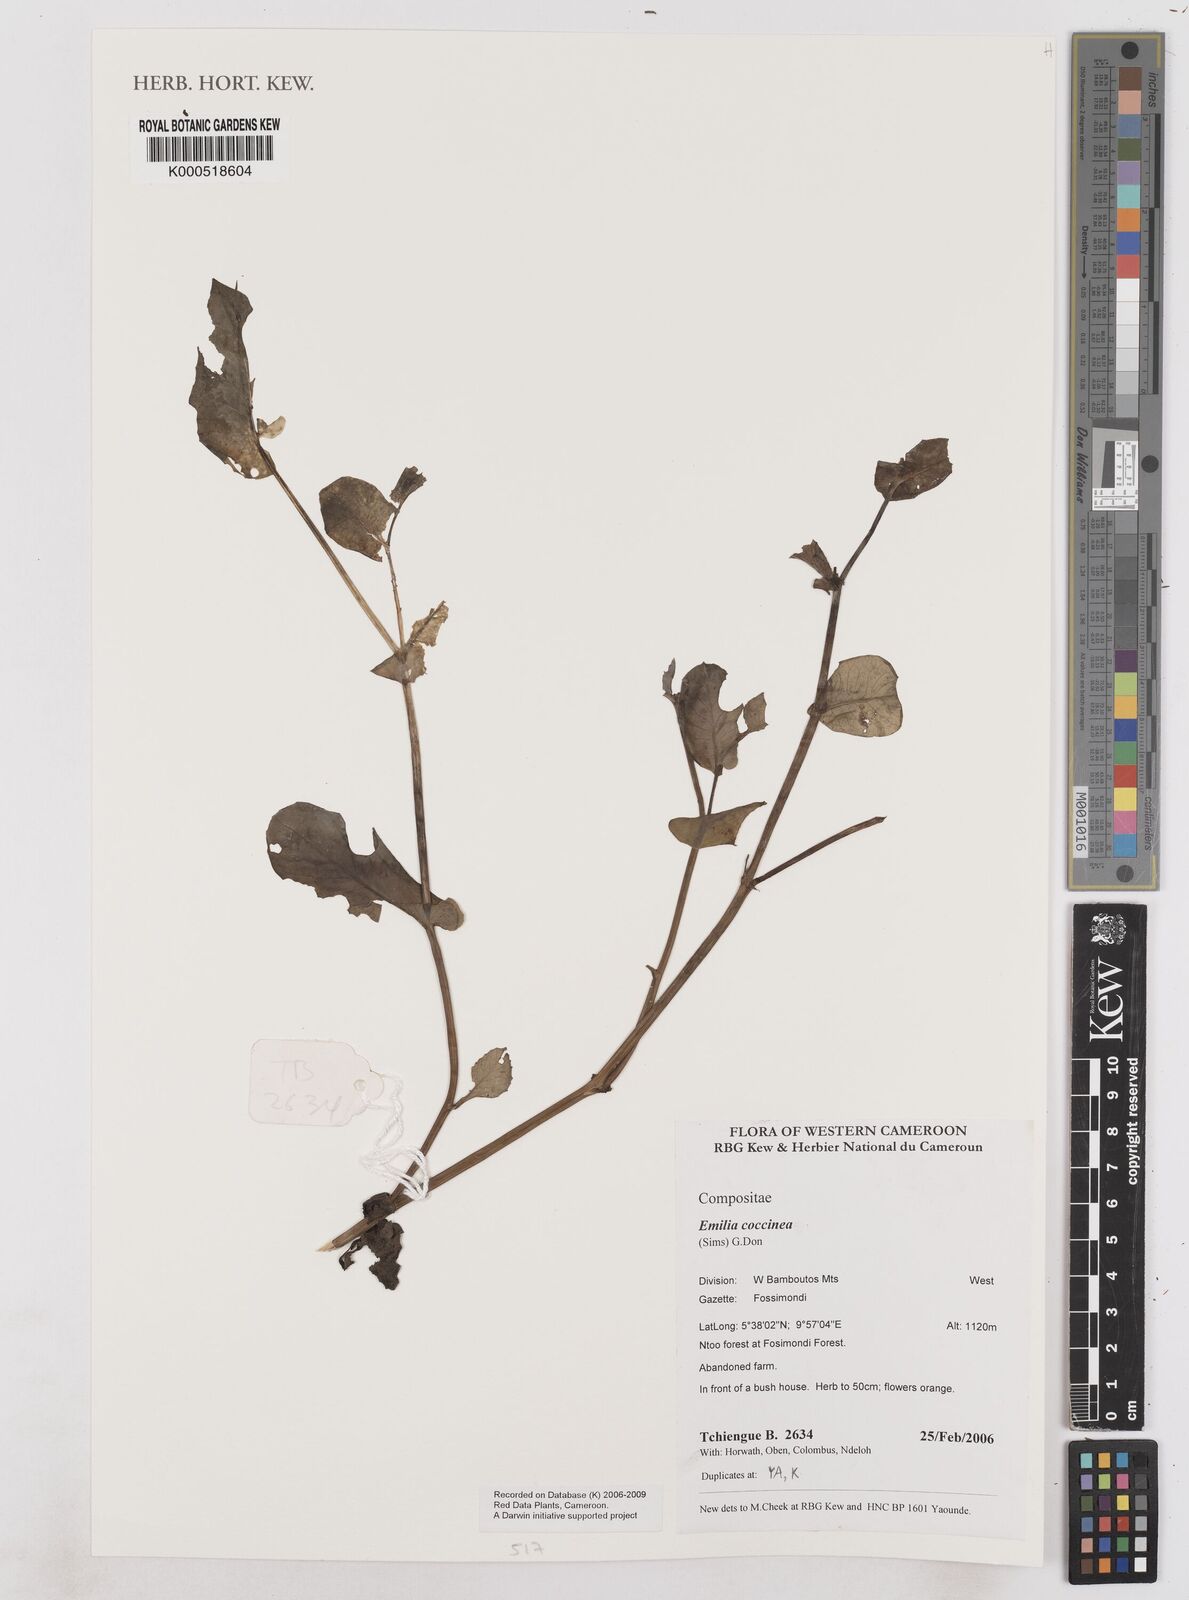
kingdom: Plantae
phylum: Tracheophyta
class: Magnoliopsida
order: Asterales
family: Asteraceae
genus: Emilia
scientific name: Emilia coccinea
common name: Scarlet tasselflower
